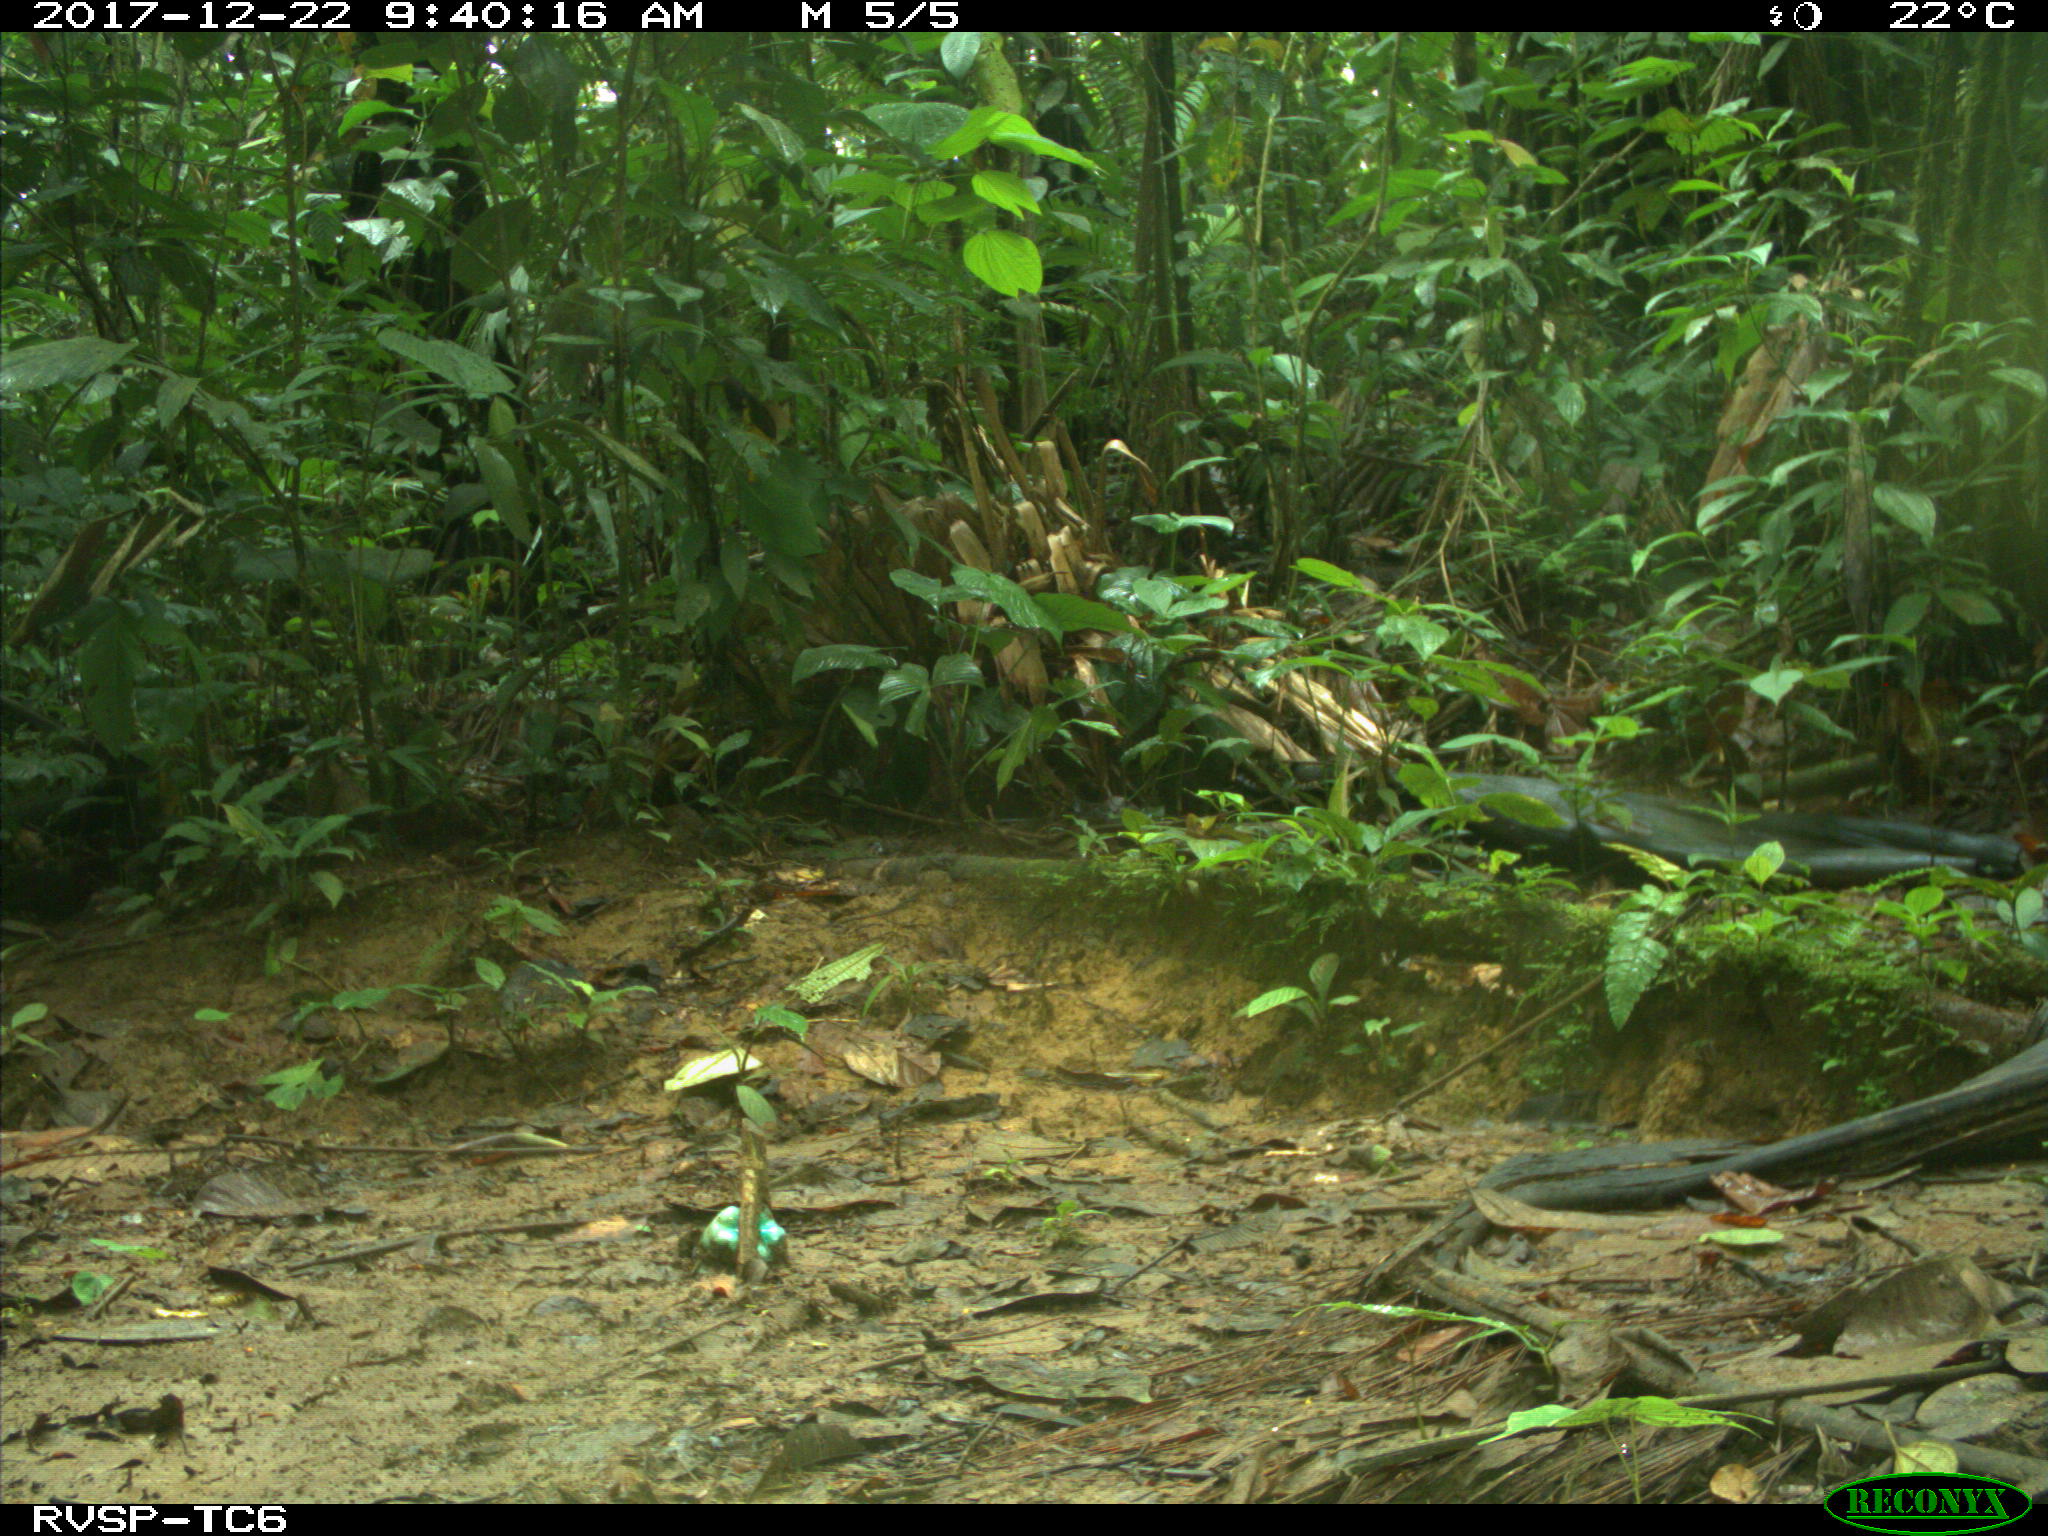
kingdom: Animalia
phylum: Chordata
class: Mammalia
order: Rodentia
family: Dasyproctidae
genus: Dasyprocta
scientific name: Dasyprocta punctata
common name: Central american agouti
